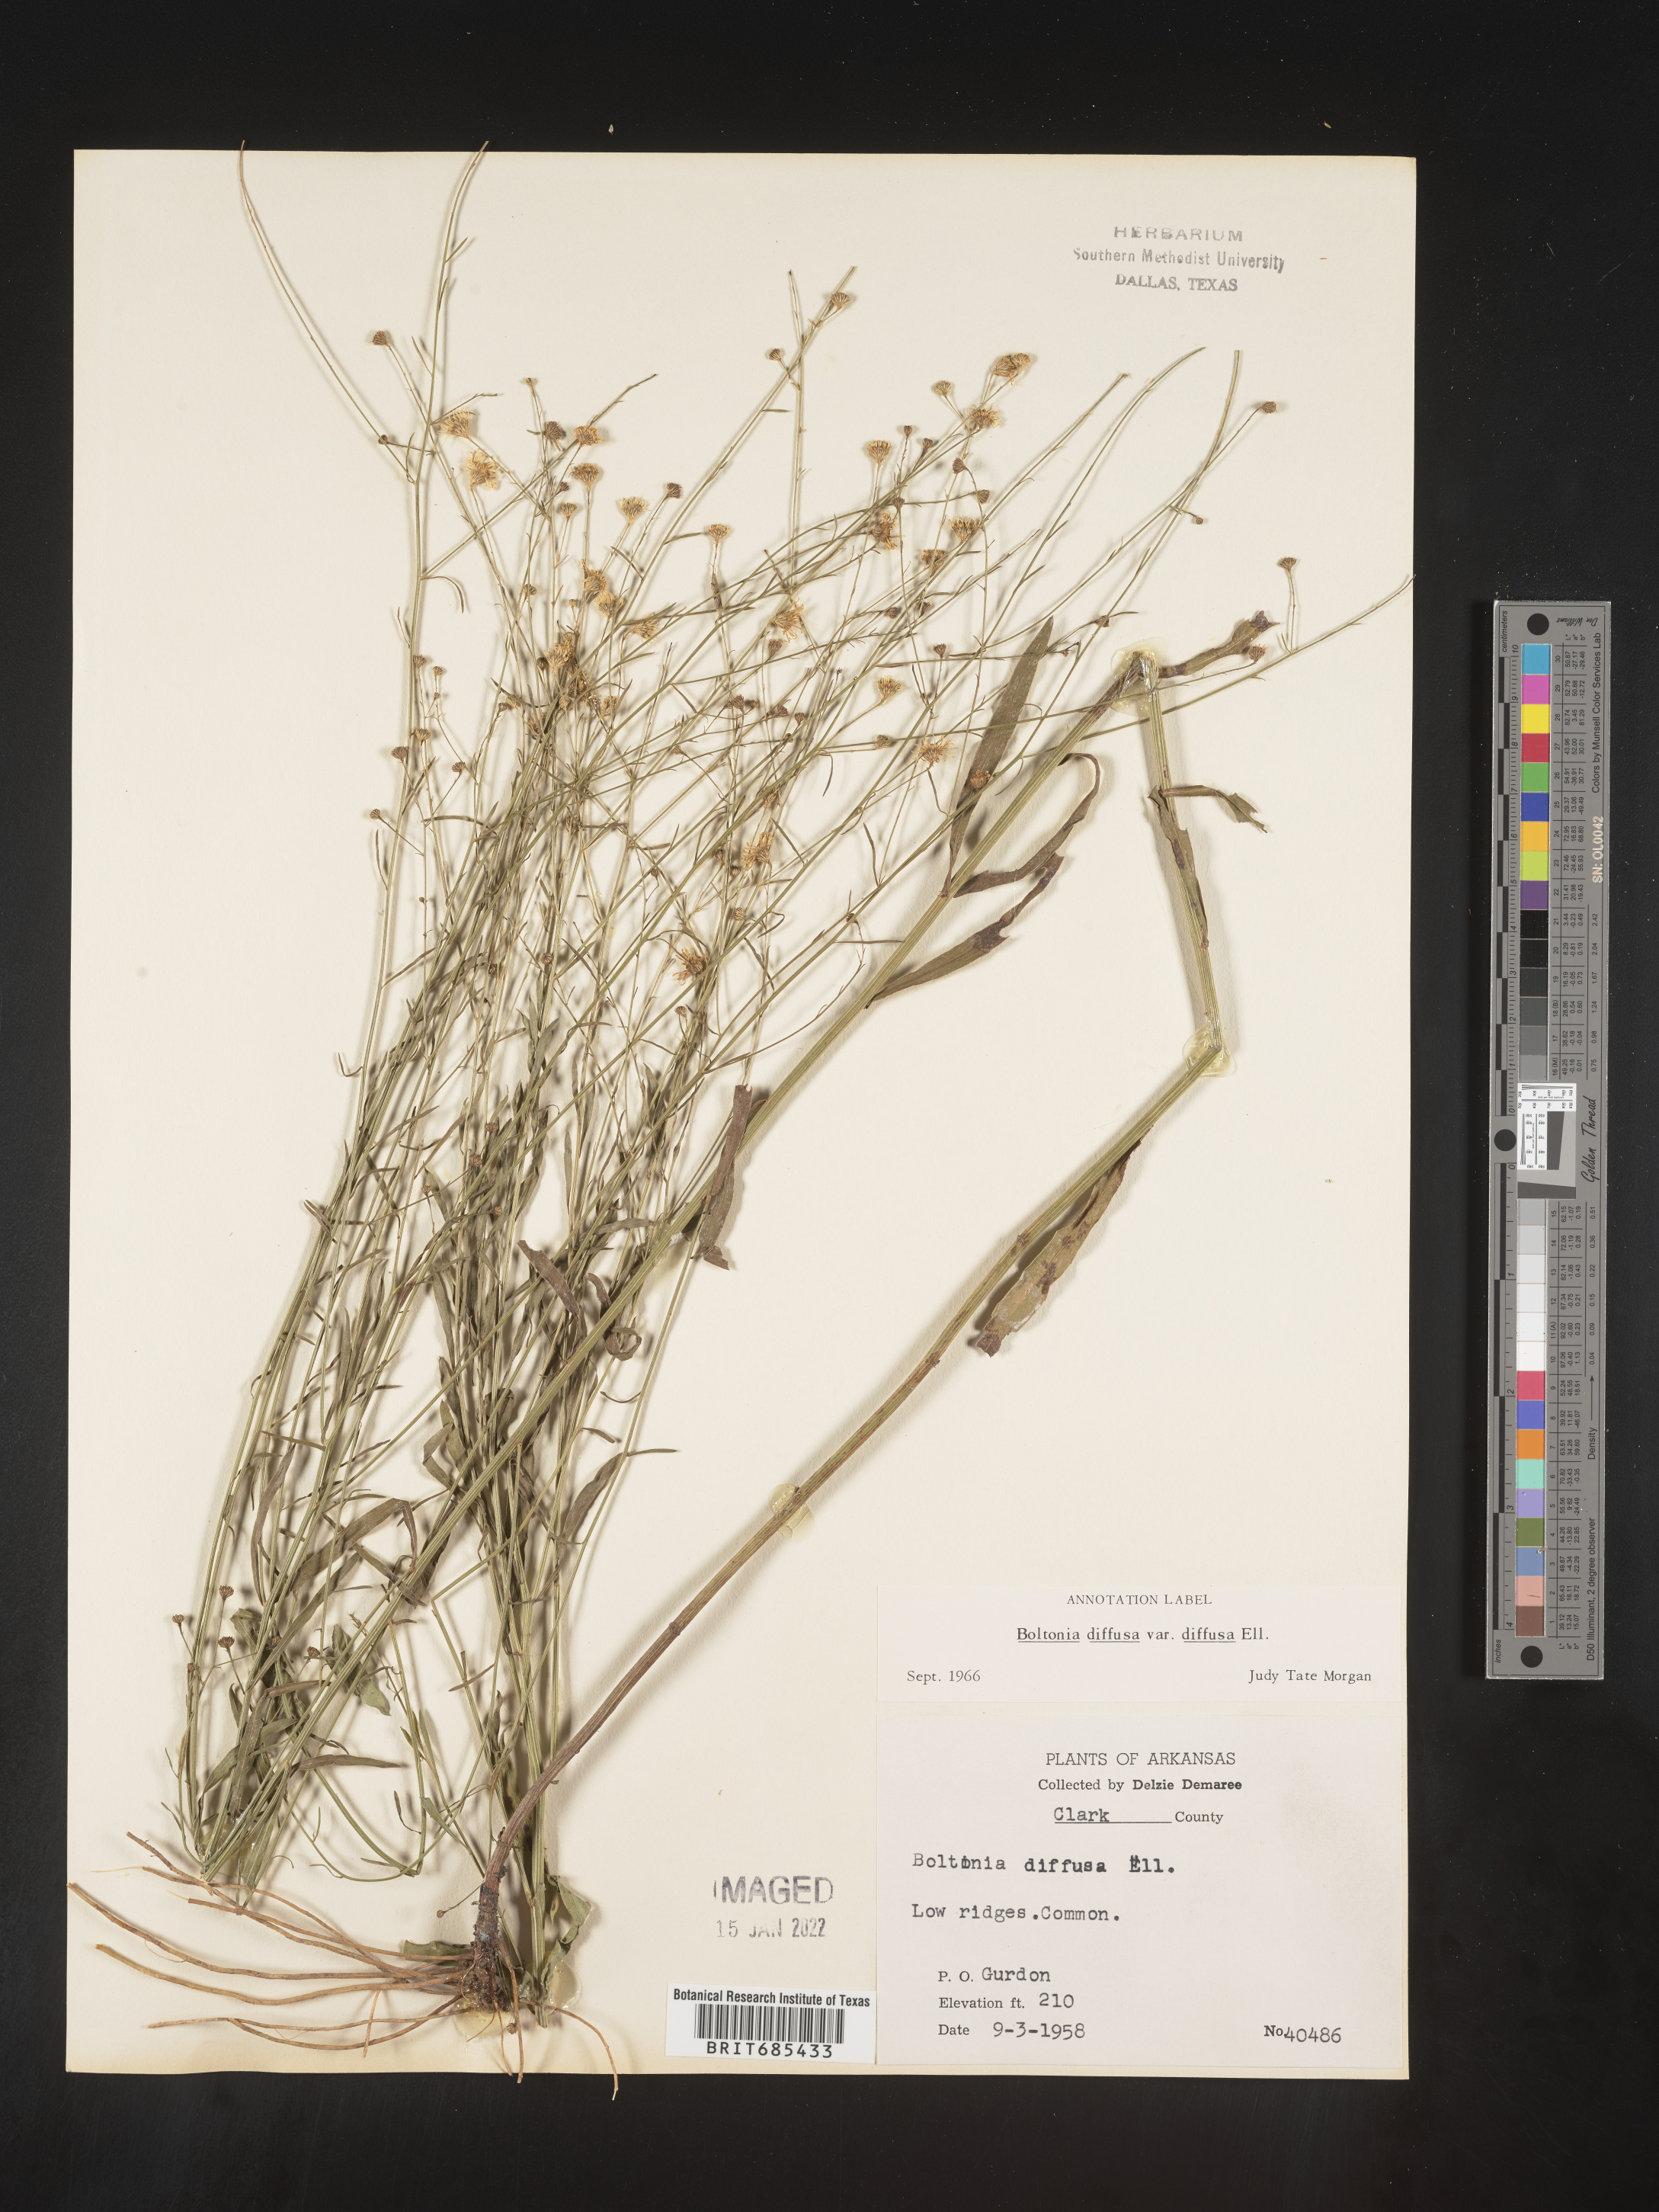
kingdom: Plantae
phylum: Tracheophyta
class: Magnoliopsida
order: Asterales
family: Asteraceae
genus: Boltonia
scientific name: Boltonia diffusa
